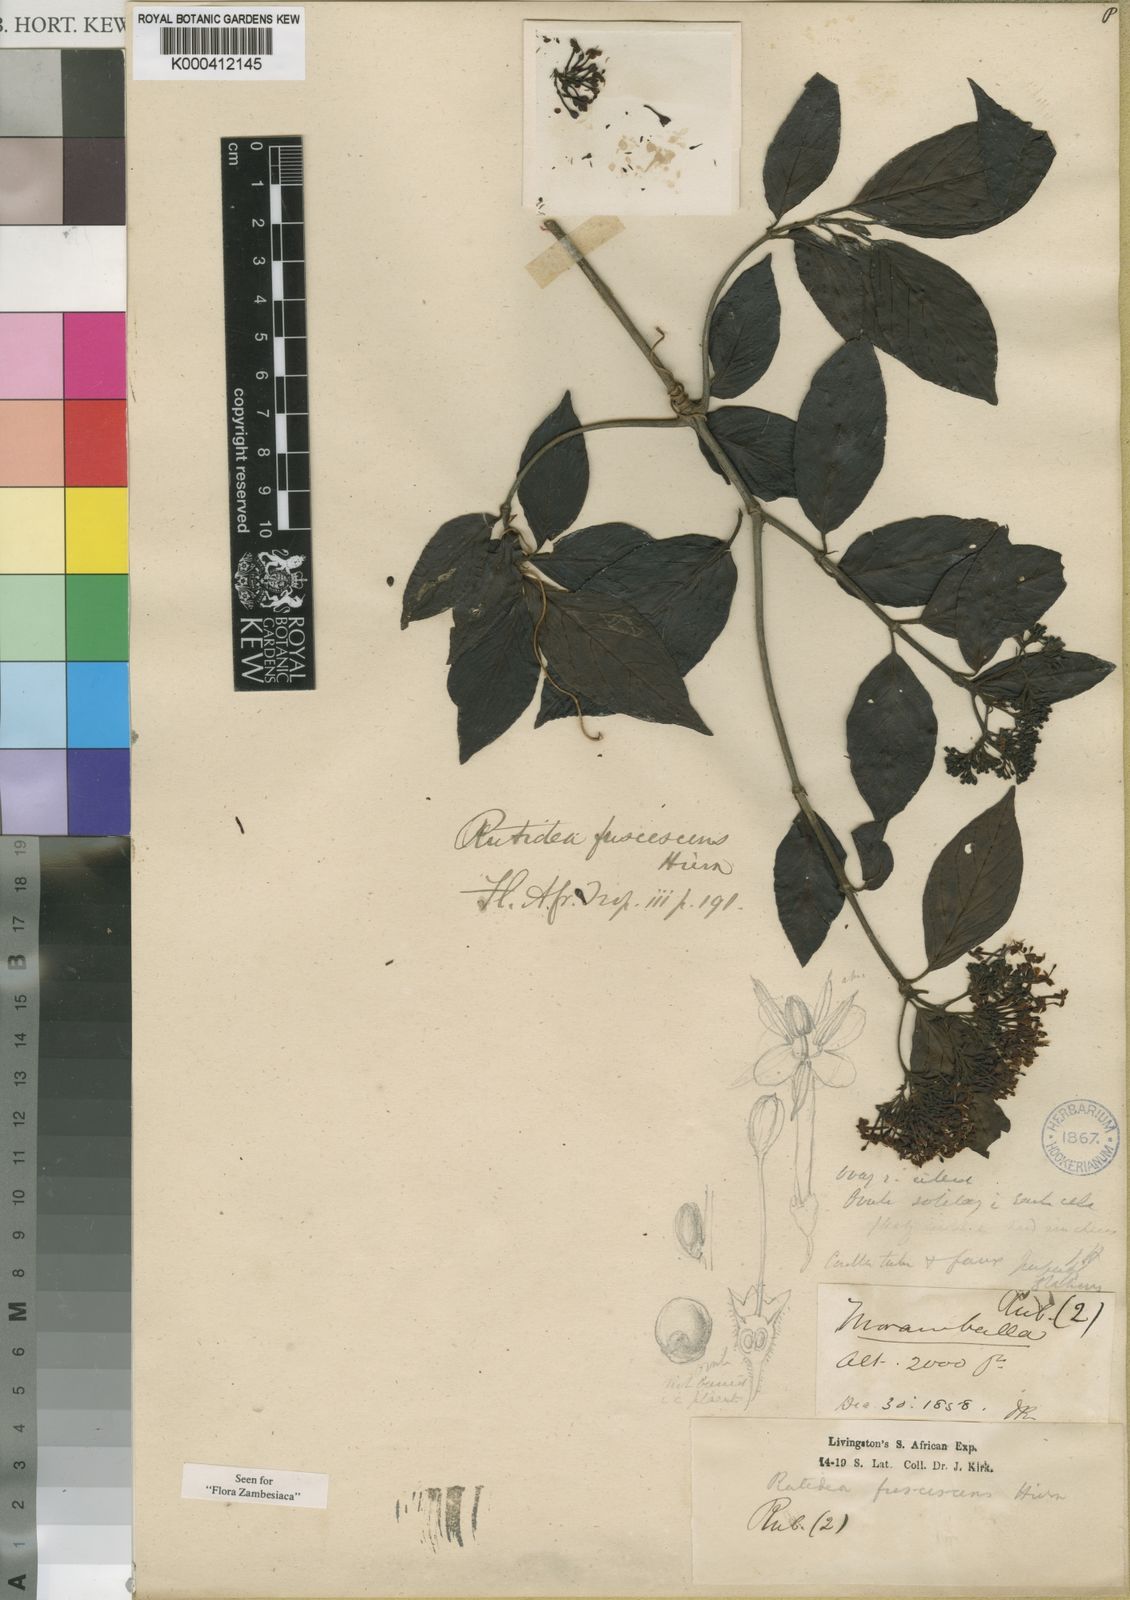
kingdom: Plantae
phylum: Tracheophyta
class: Magnoliopsida
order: Gentianales
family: Rubiaceae
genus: Rutidea
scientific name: Rutidea fuscescens
